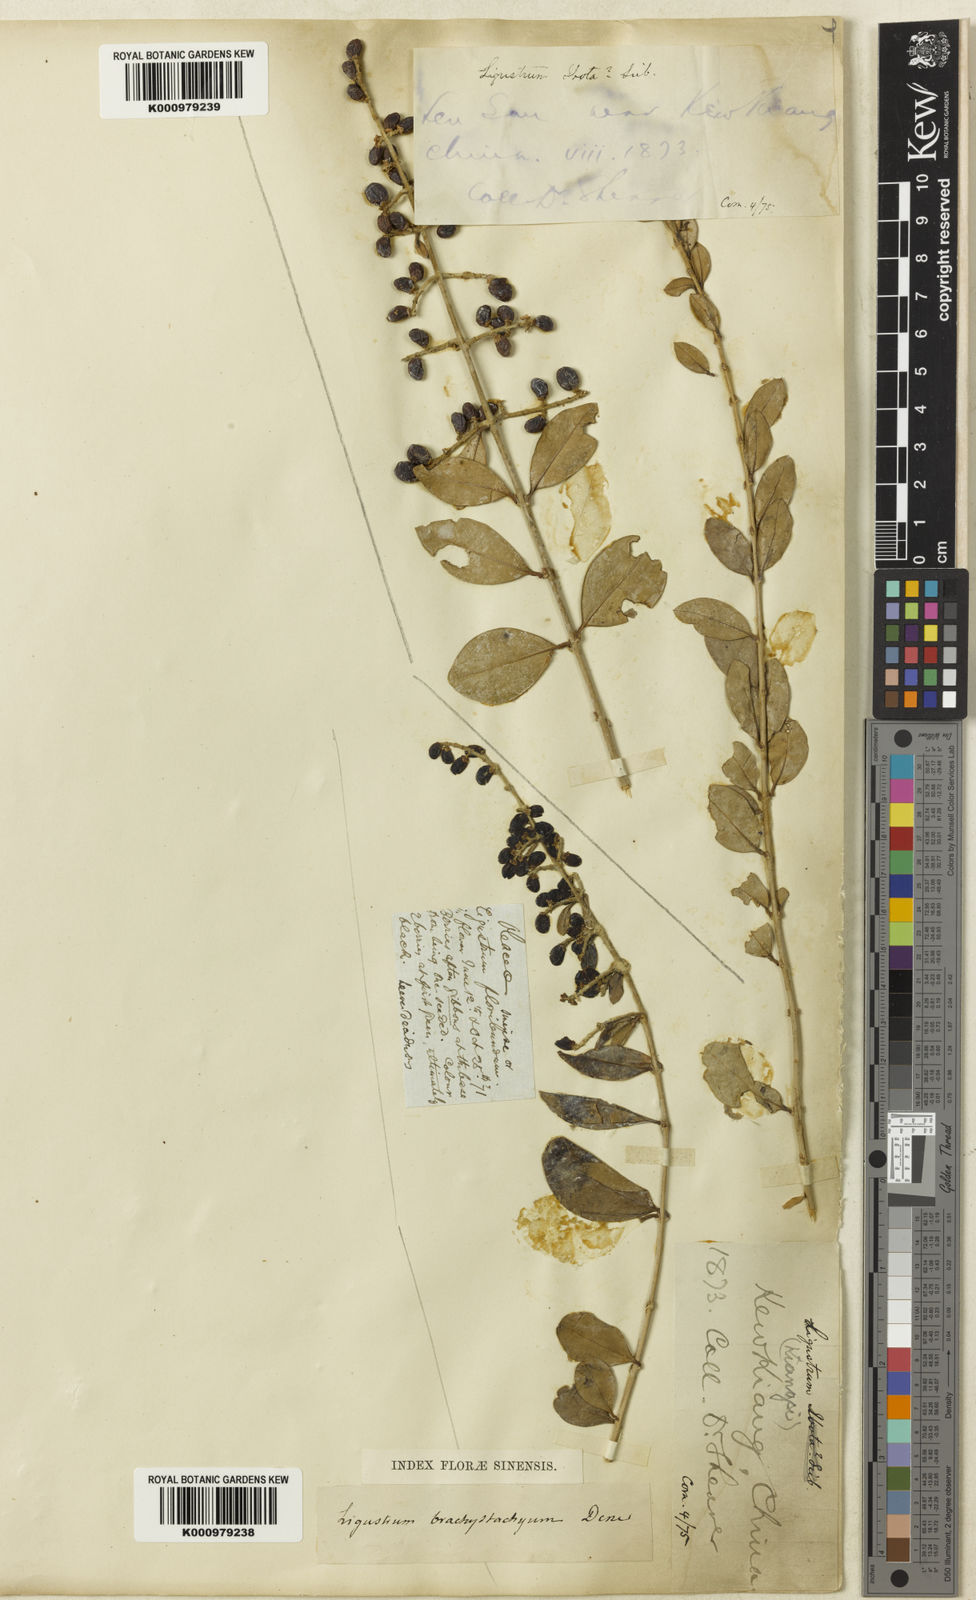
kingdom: Plantae
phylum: Tracheophyta
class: Magnoliopsida
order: Lamiales
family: Oleaceae
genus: Ligustrum
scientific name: Ligustrum
